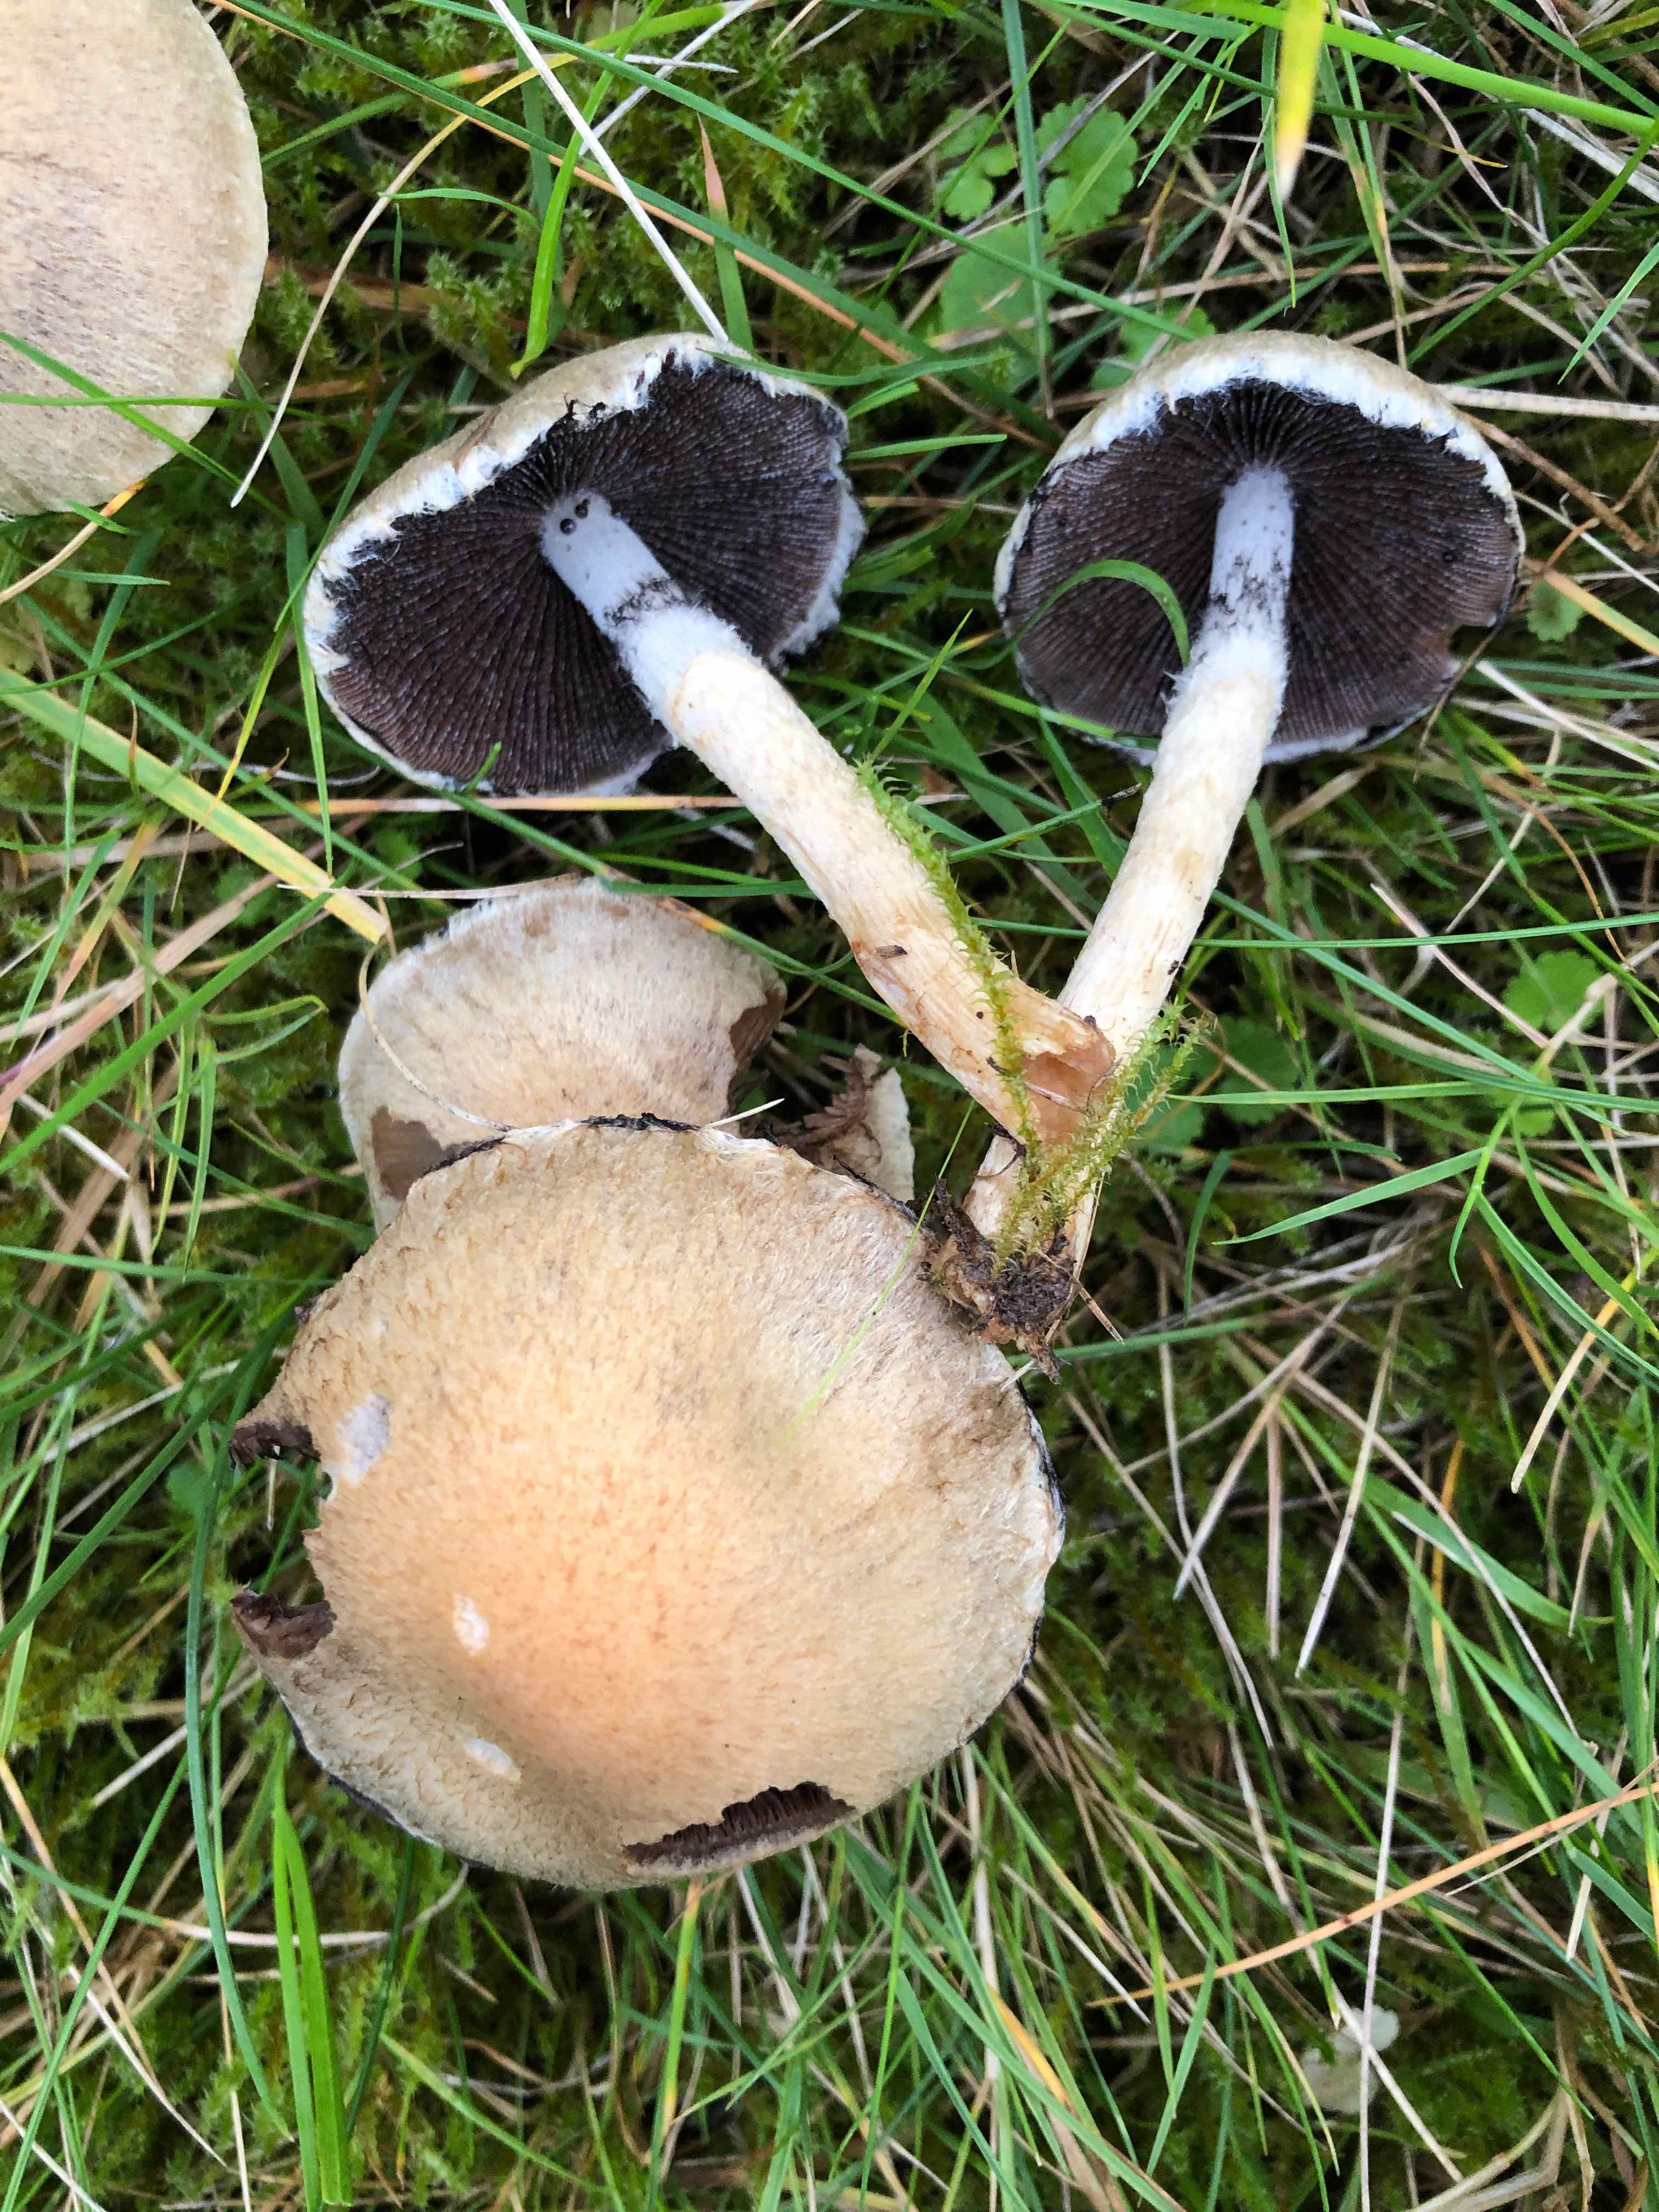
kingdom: Fungi
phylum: Basidiomycota
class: Agaricomycetes
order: Agaricales
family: Psathyrellaceae
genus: Lacrymaria
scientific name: Lacrymaria lacrymabunda
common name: grædende mørkhat
